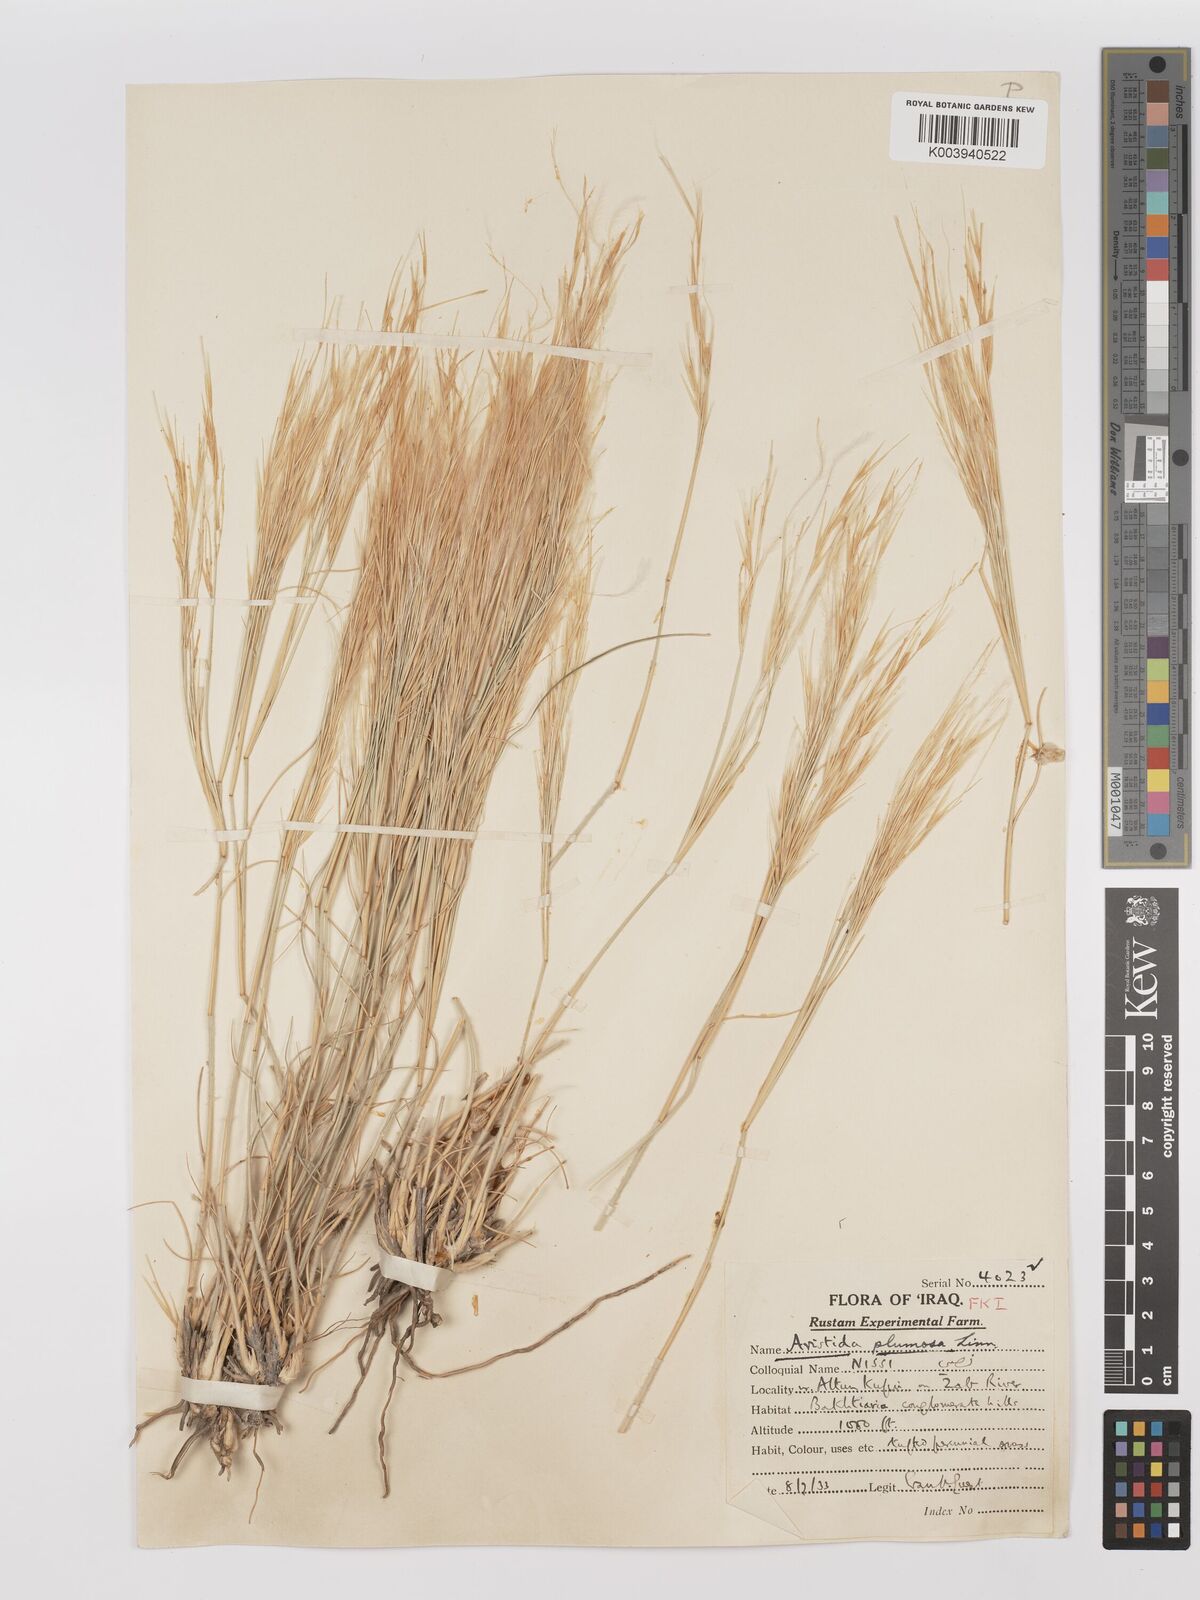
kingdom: Plantae
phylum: Tracheophyta
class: Liliopsida
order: Poales
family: Poaceae
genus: Stipagrostis
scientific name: Stipagrostis plumosa
